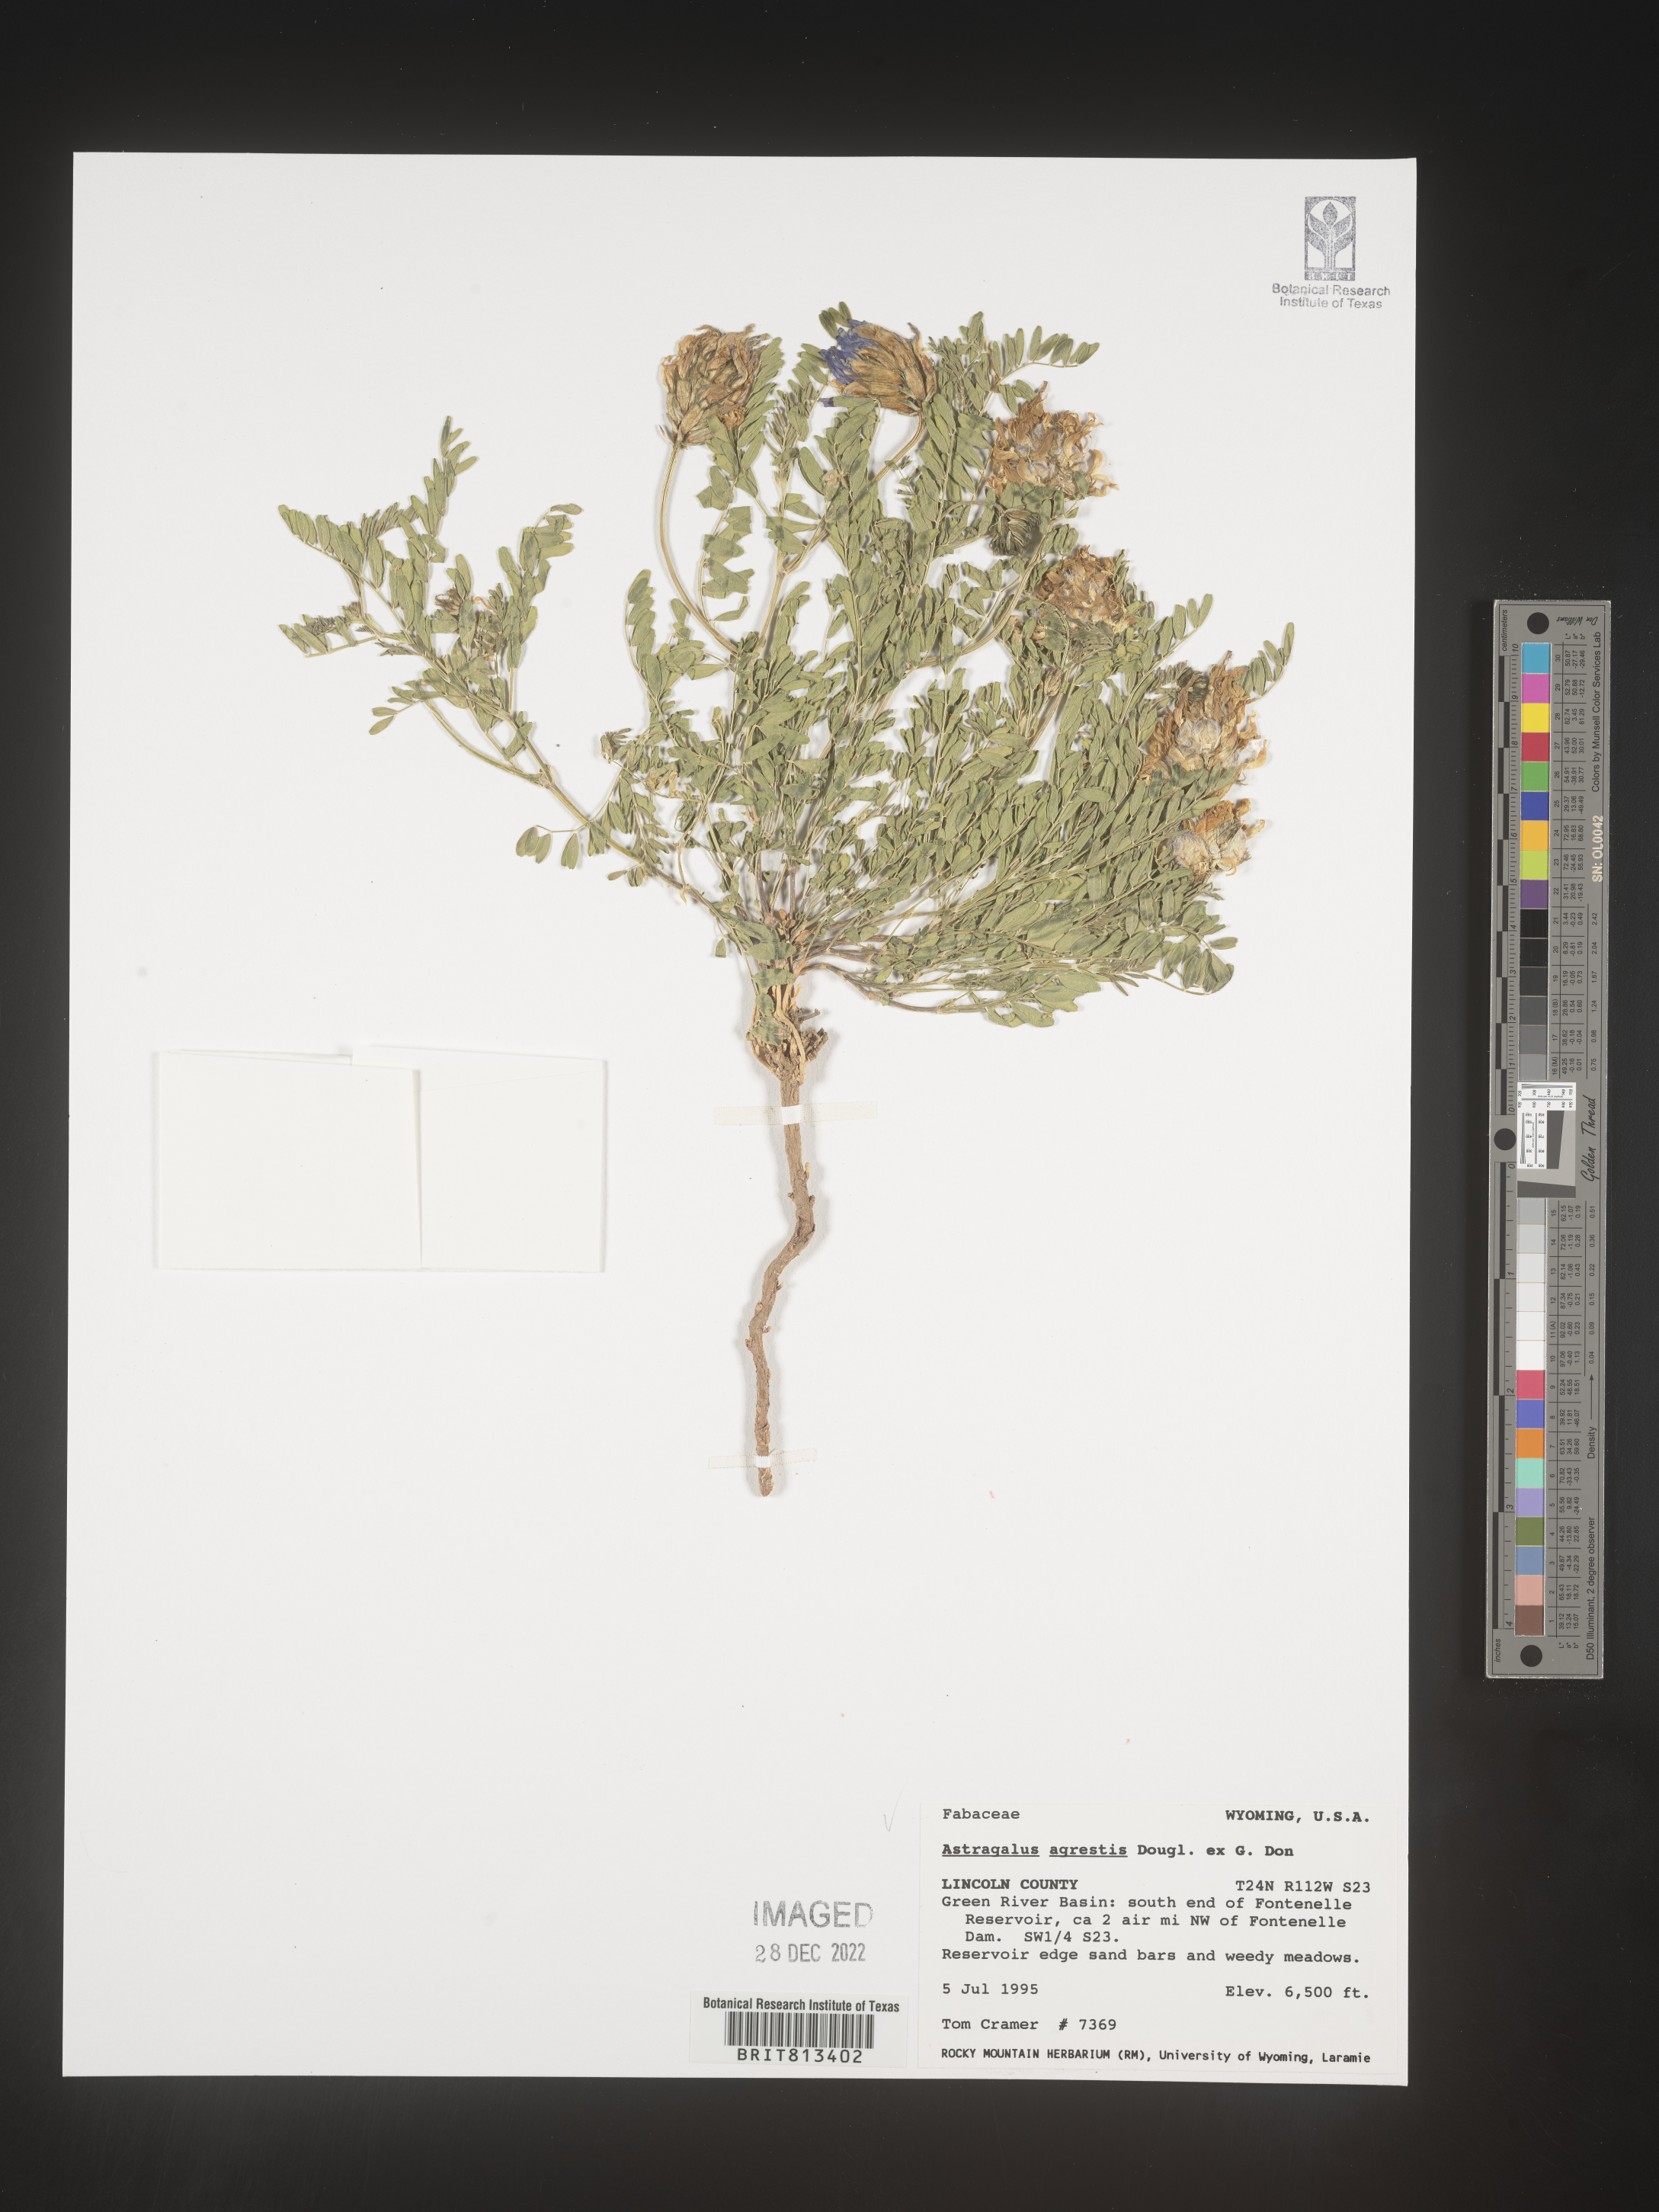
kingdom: Plantae
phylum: Tracheophyta
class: Magnoliopsida
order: Fabales
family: Fabaceae
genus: Astragalus
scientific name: Astragalus agrestis
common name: Field milk-vetch
